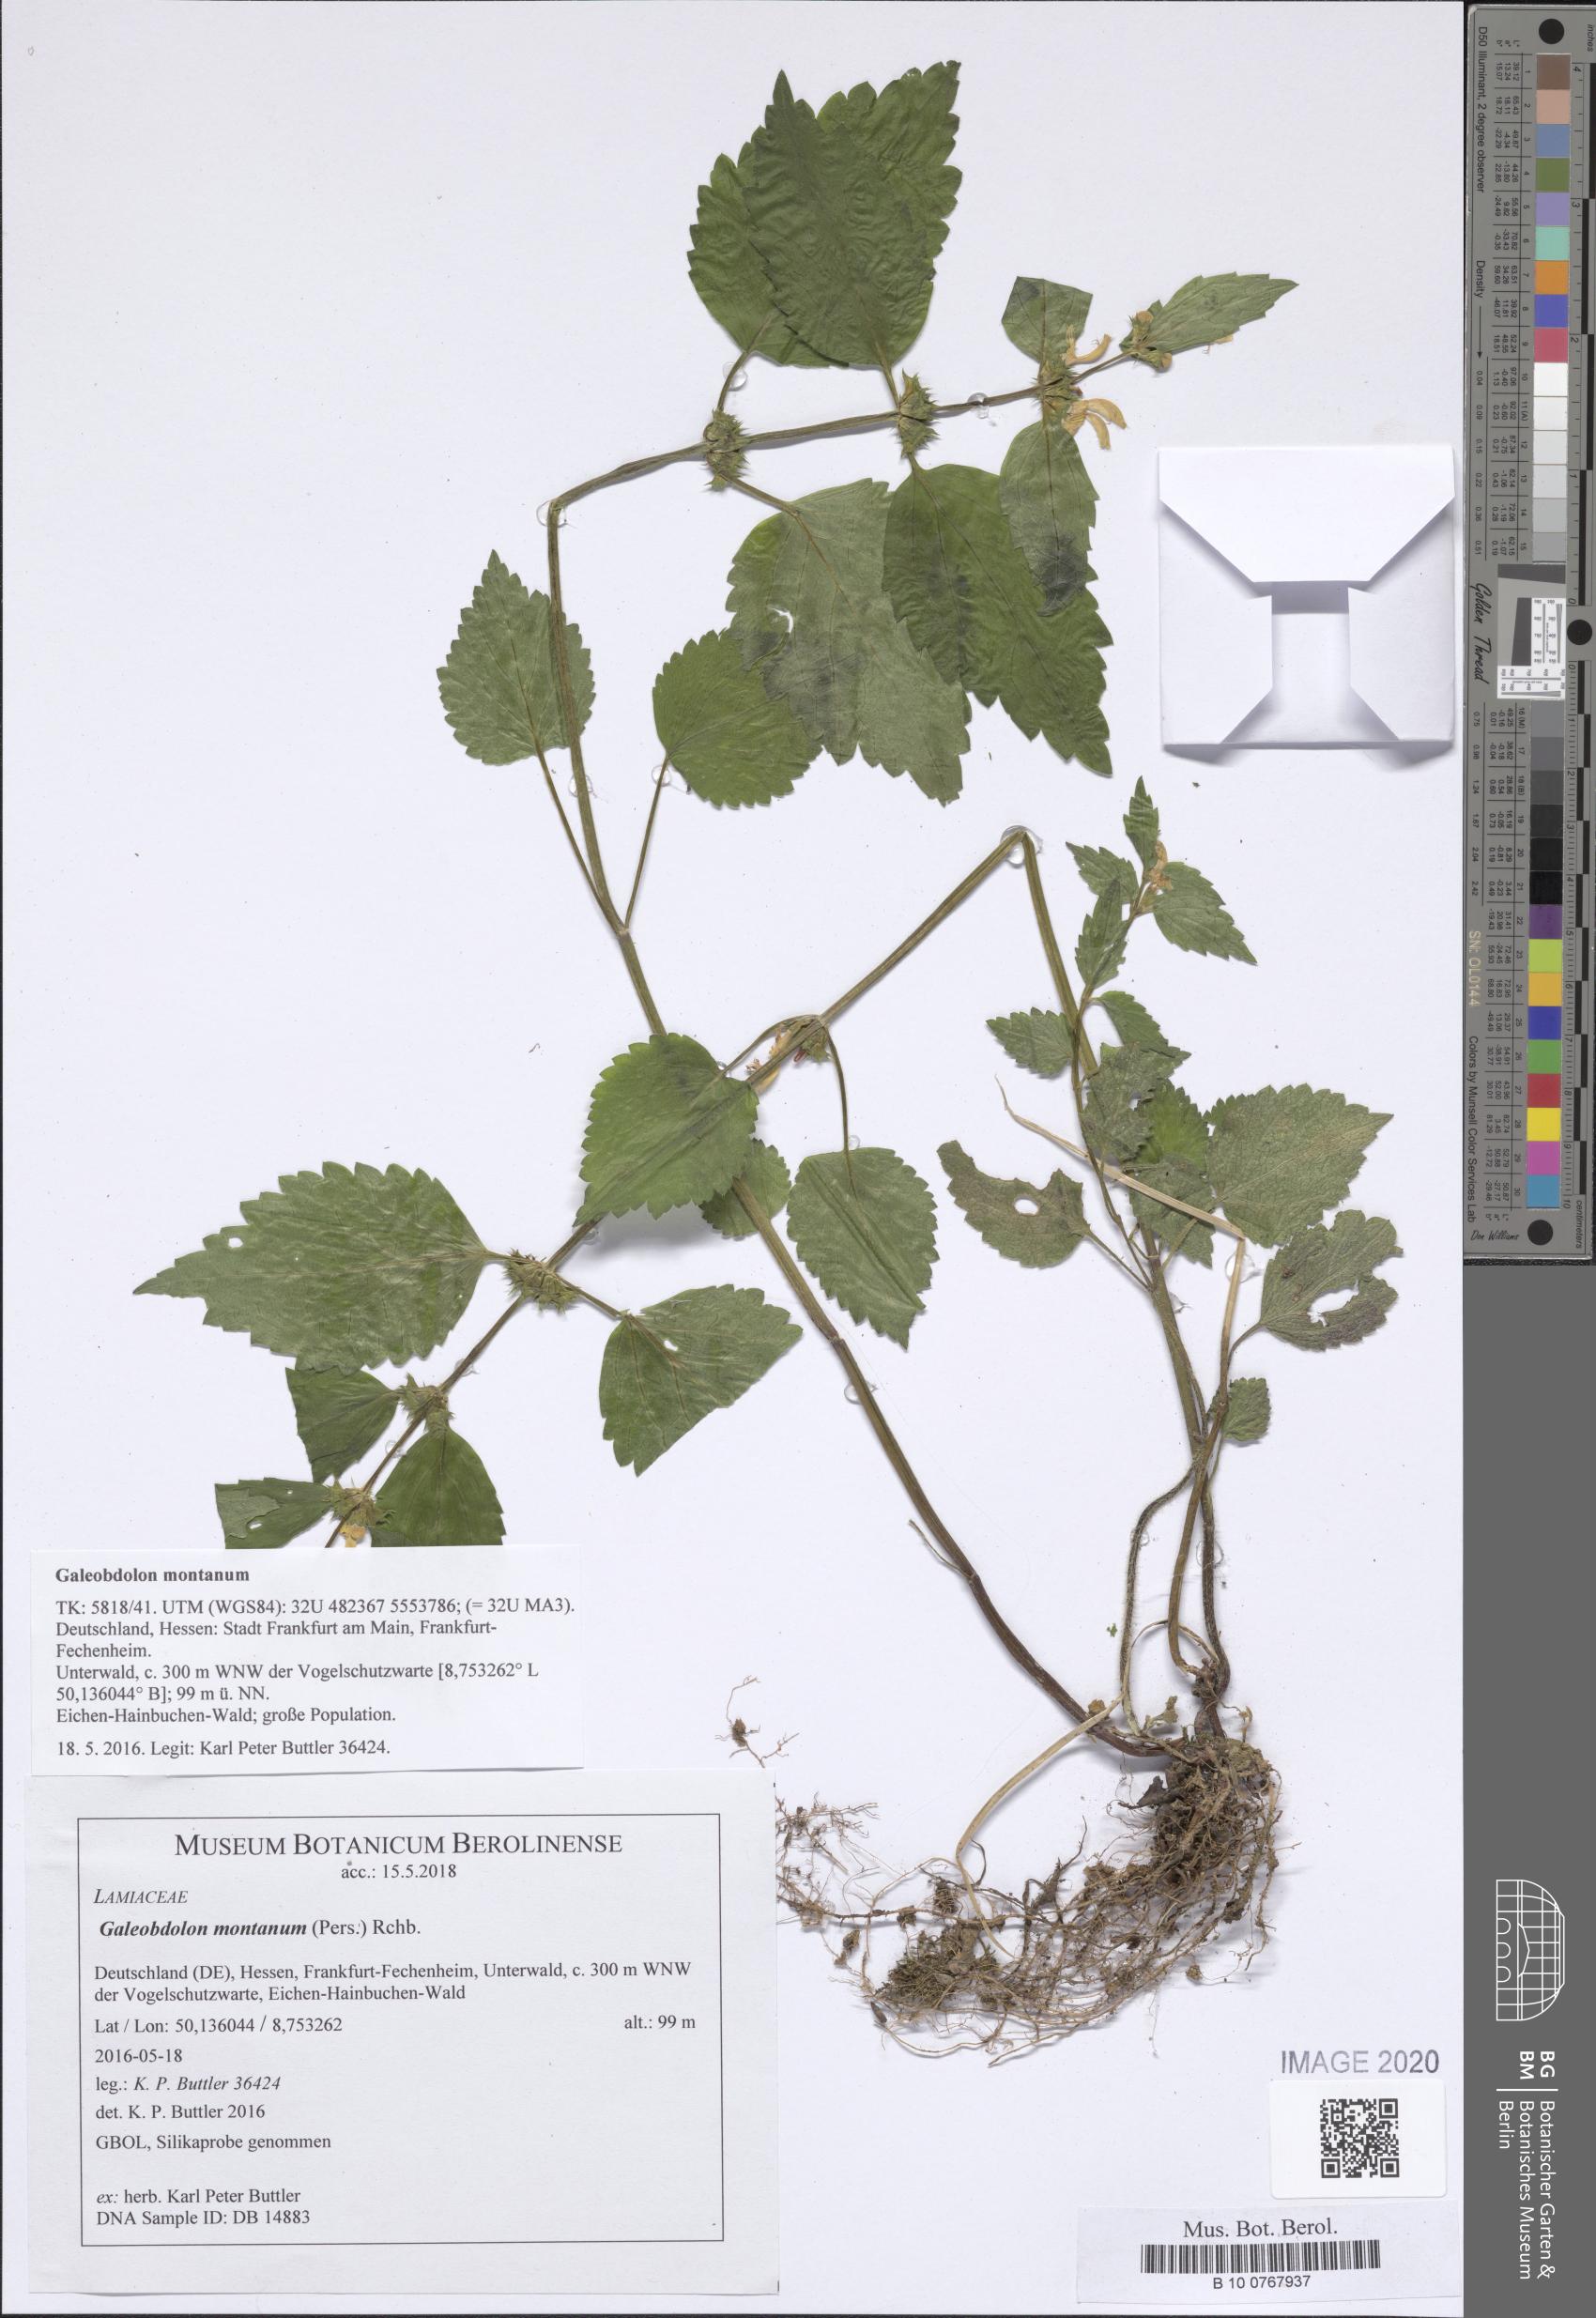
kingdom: Plantae
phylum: Tracheophyta
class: Magnoliopsida
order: Lamiales
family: Lamiaceae
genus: Lamium
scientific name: Lamium galeobdolon
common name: Yellow archangel
